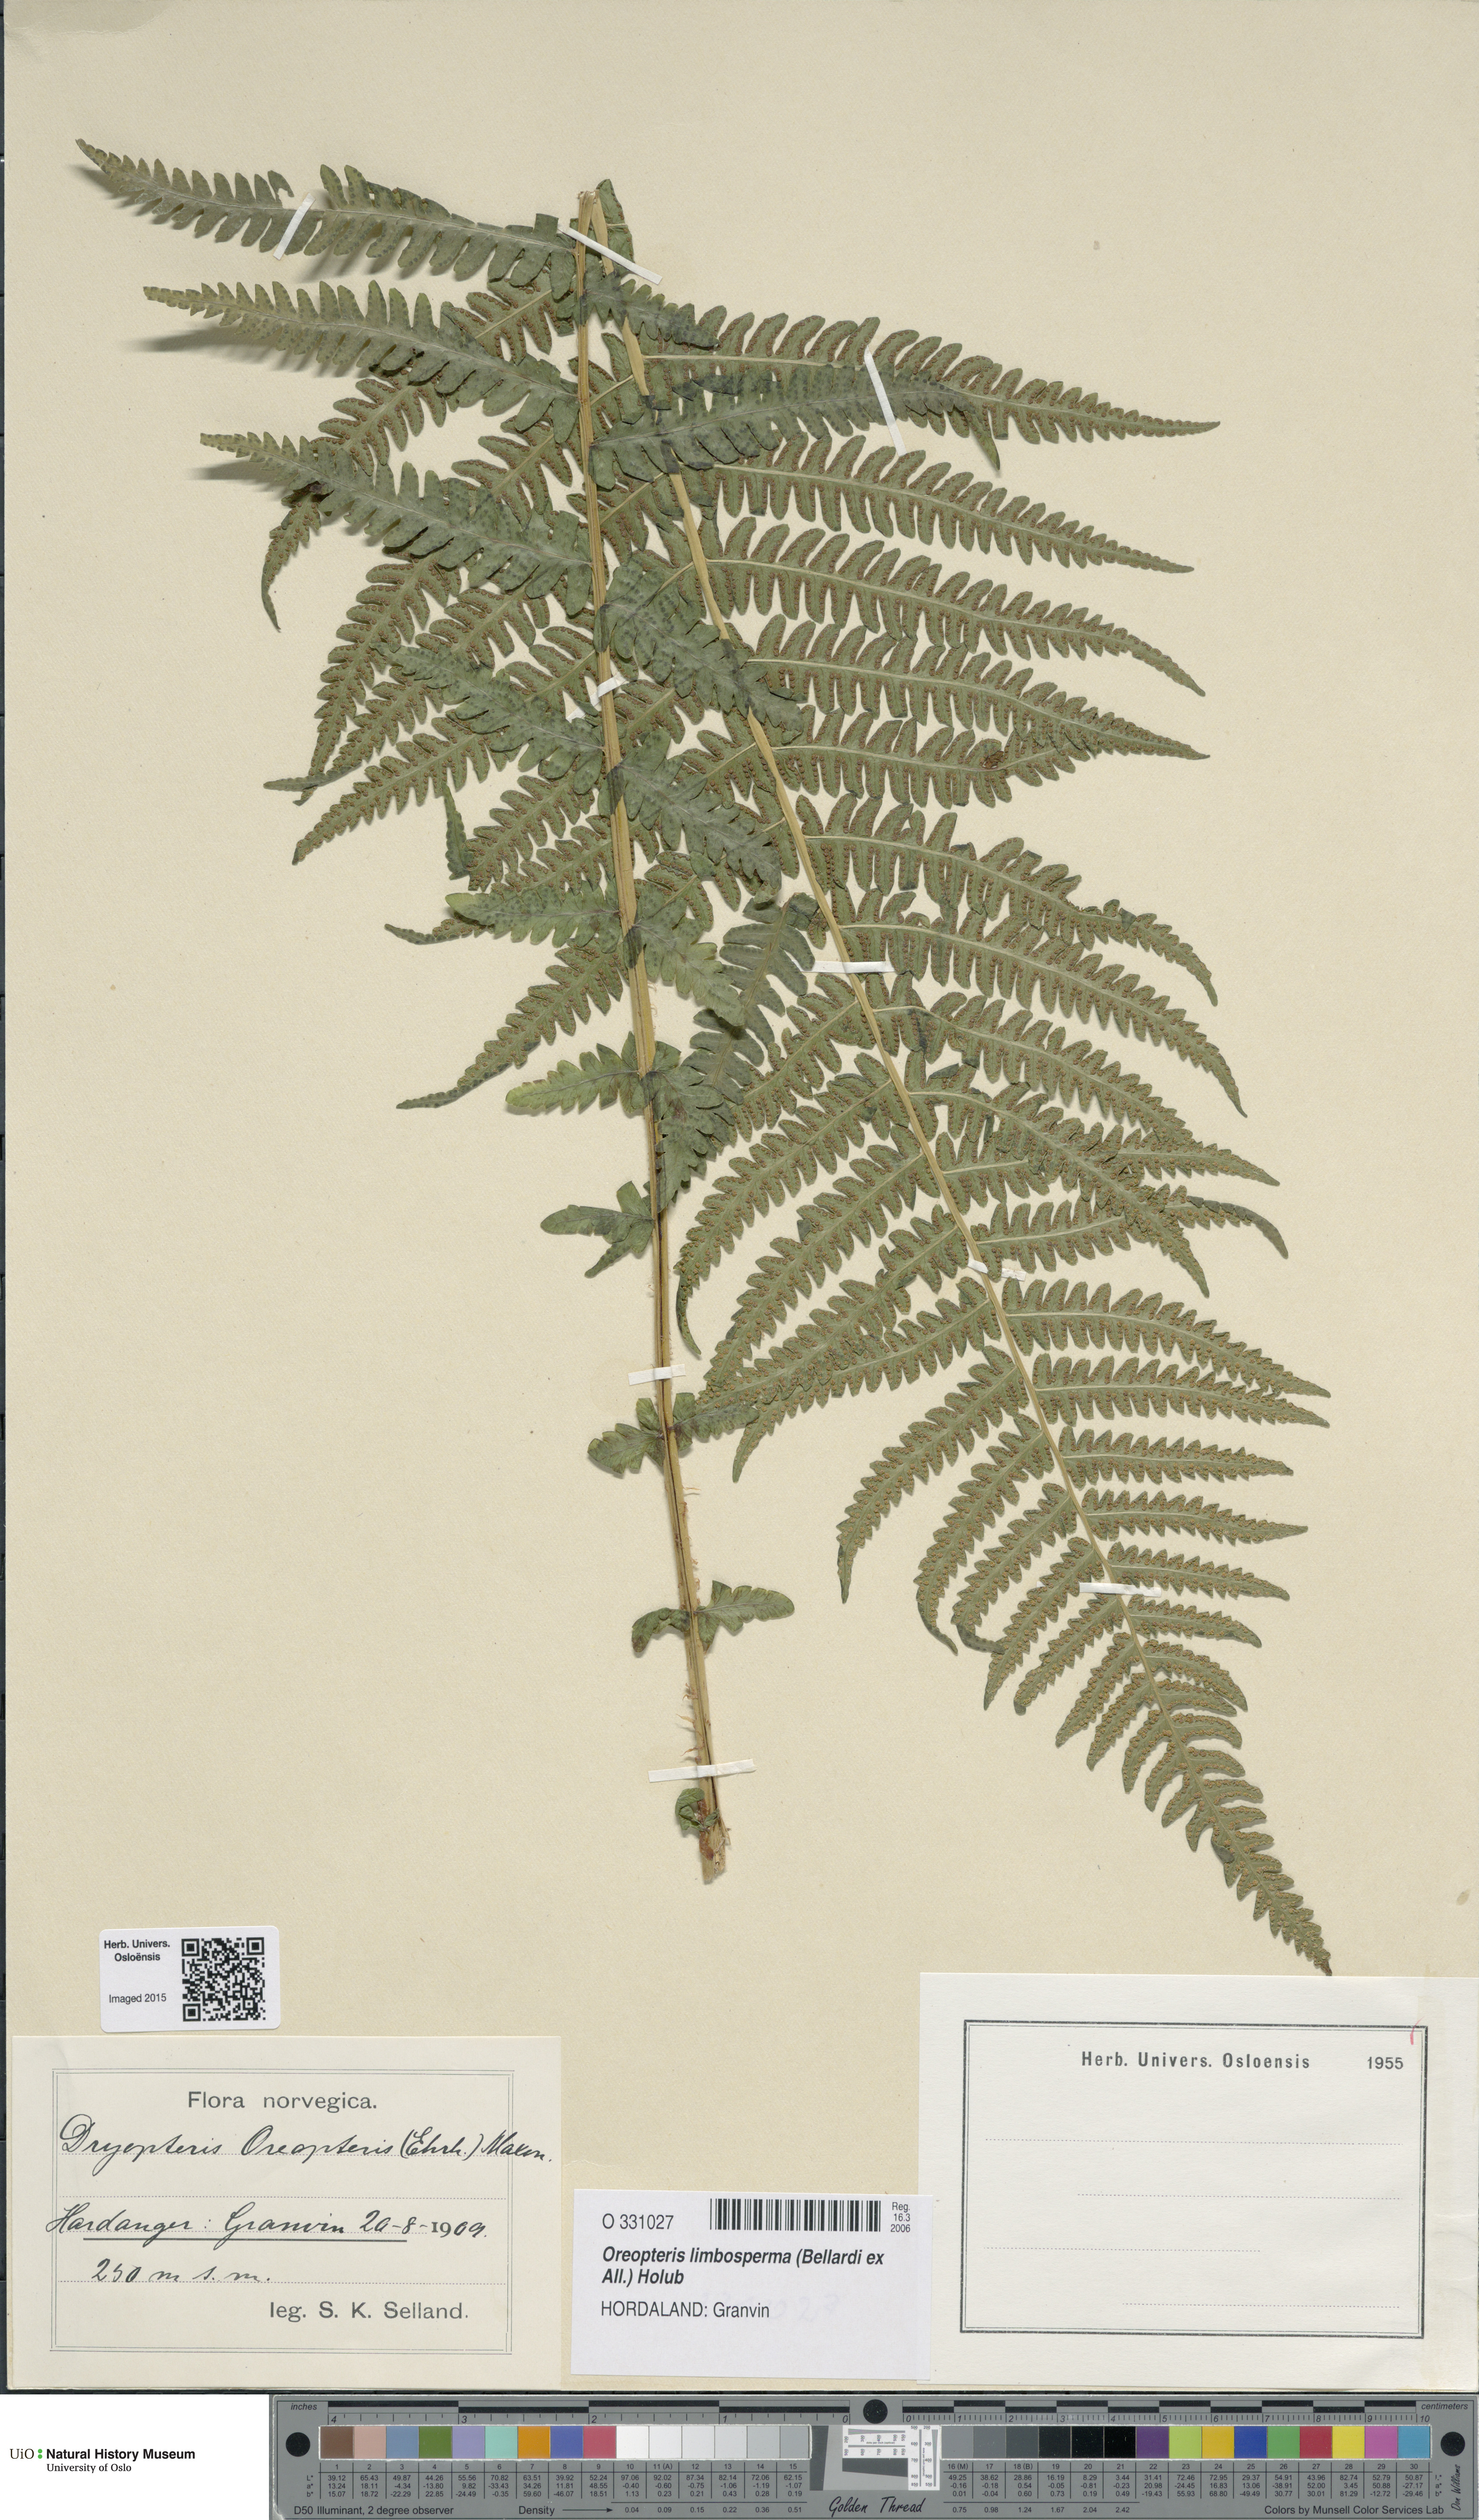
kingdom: Plantae
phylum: Tracheophyta
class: Polypodiopsida
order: Polypodiales
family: Thelypteridaceae
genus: Oreopteris
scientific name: Oreopteris limbosperma
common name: Lemon-scented fern
